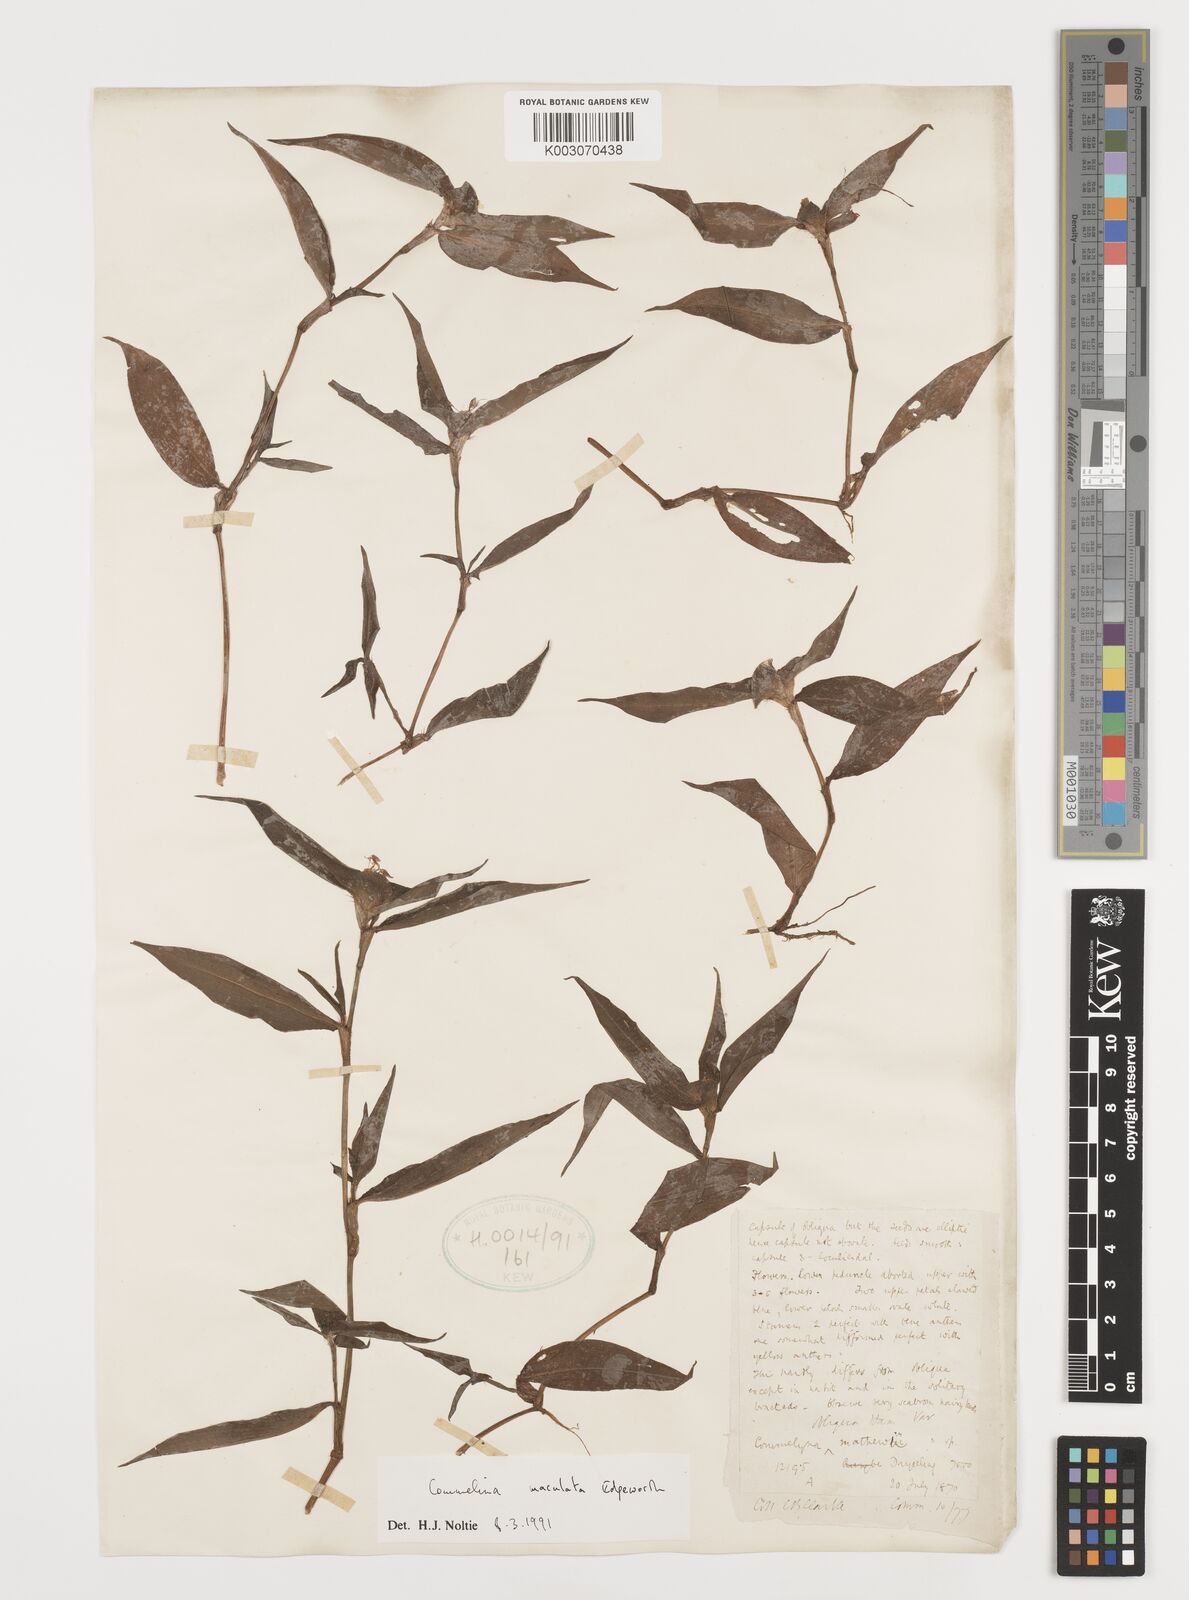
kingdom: Plantae
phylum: Tracheophyta
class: Liliopsida
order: Commelinales
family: Commelinaceae
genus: Commelina
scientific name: Commelina maculata
